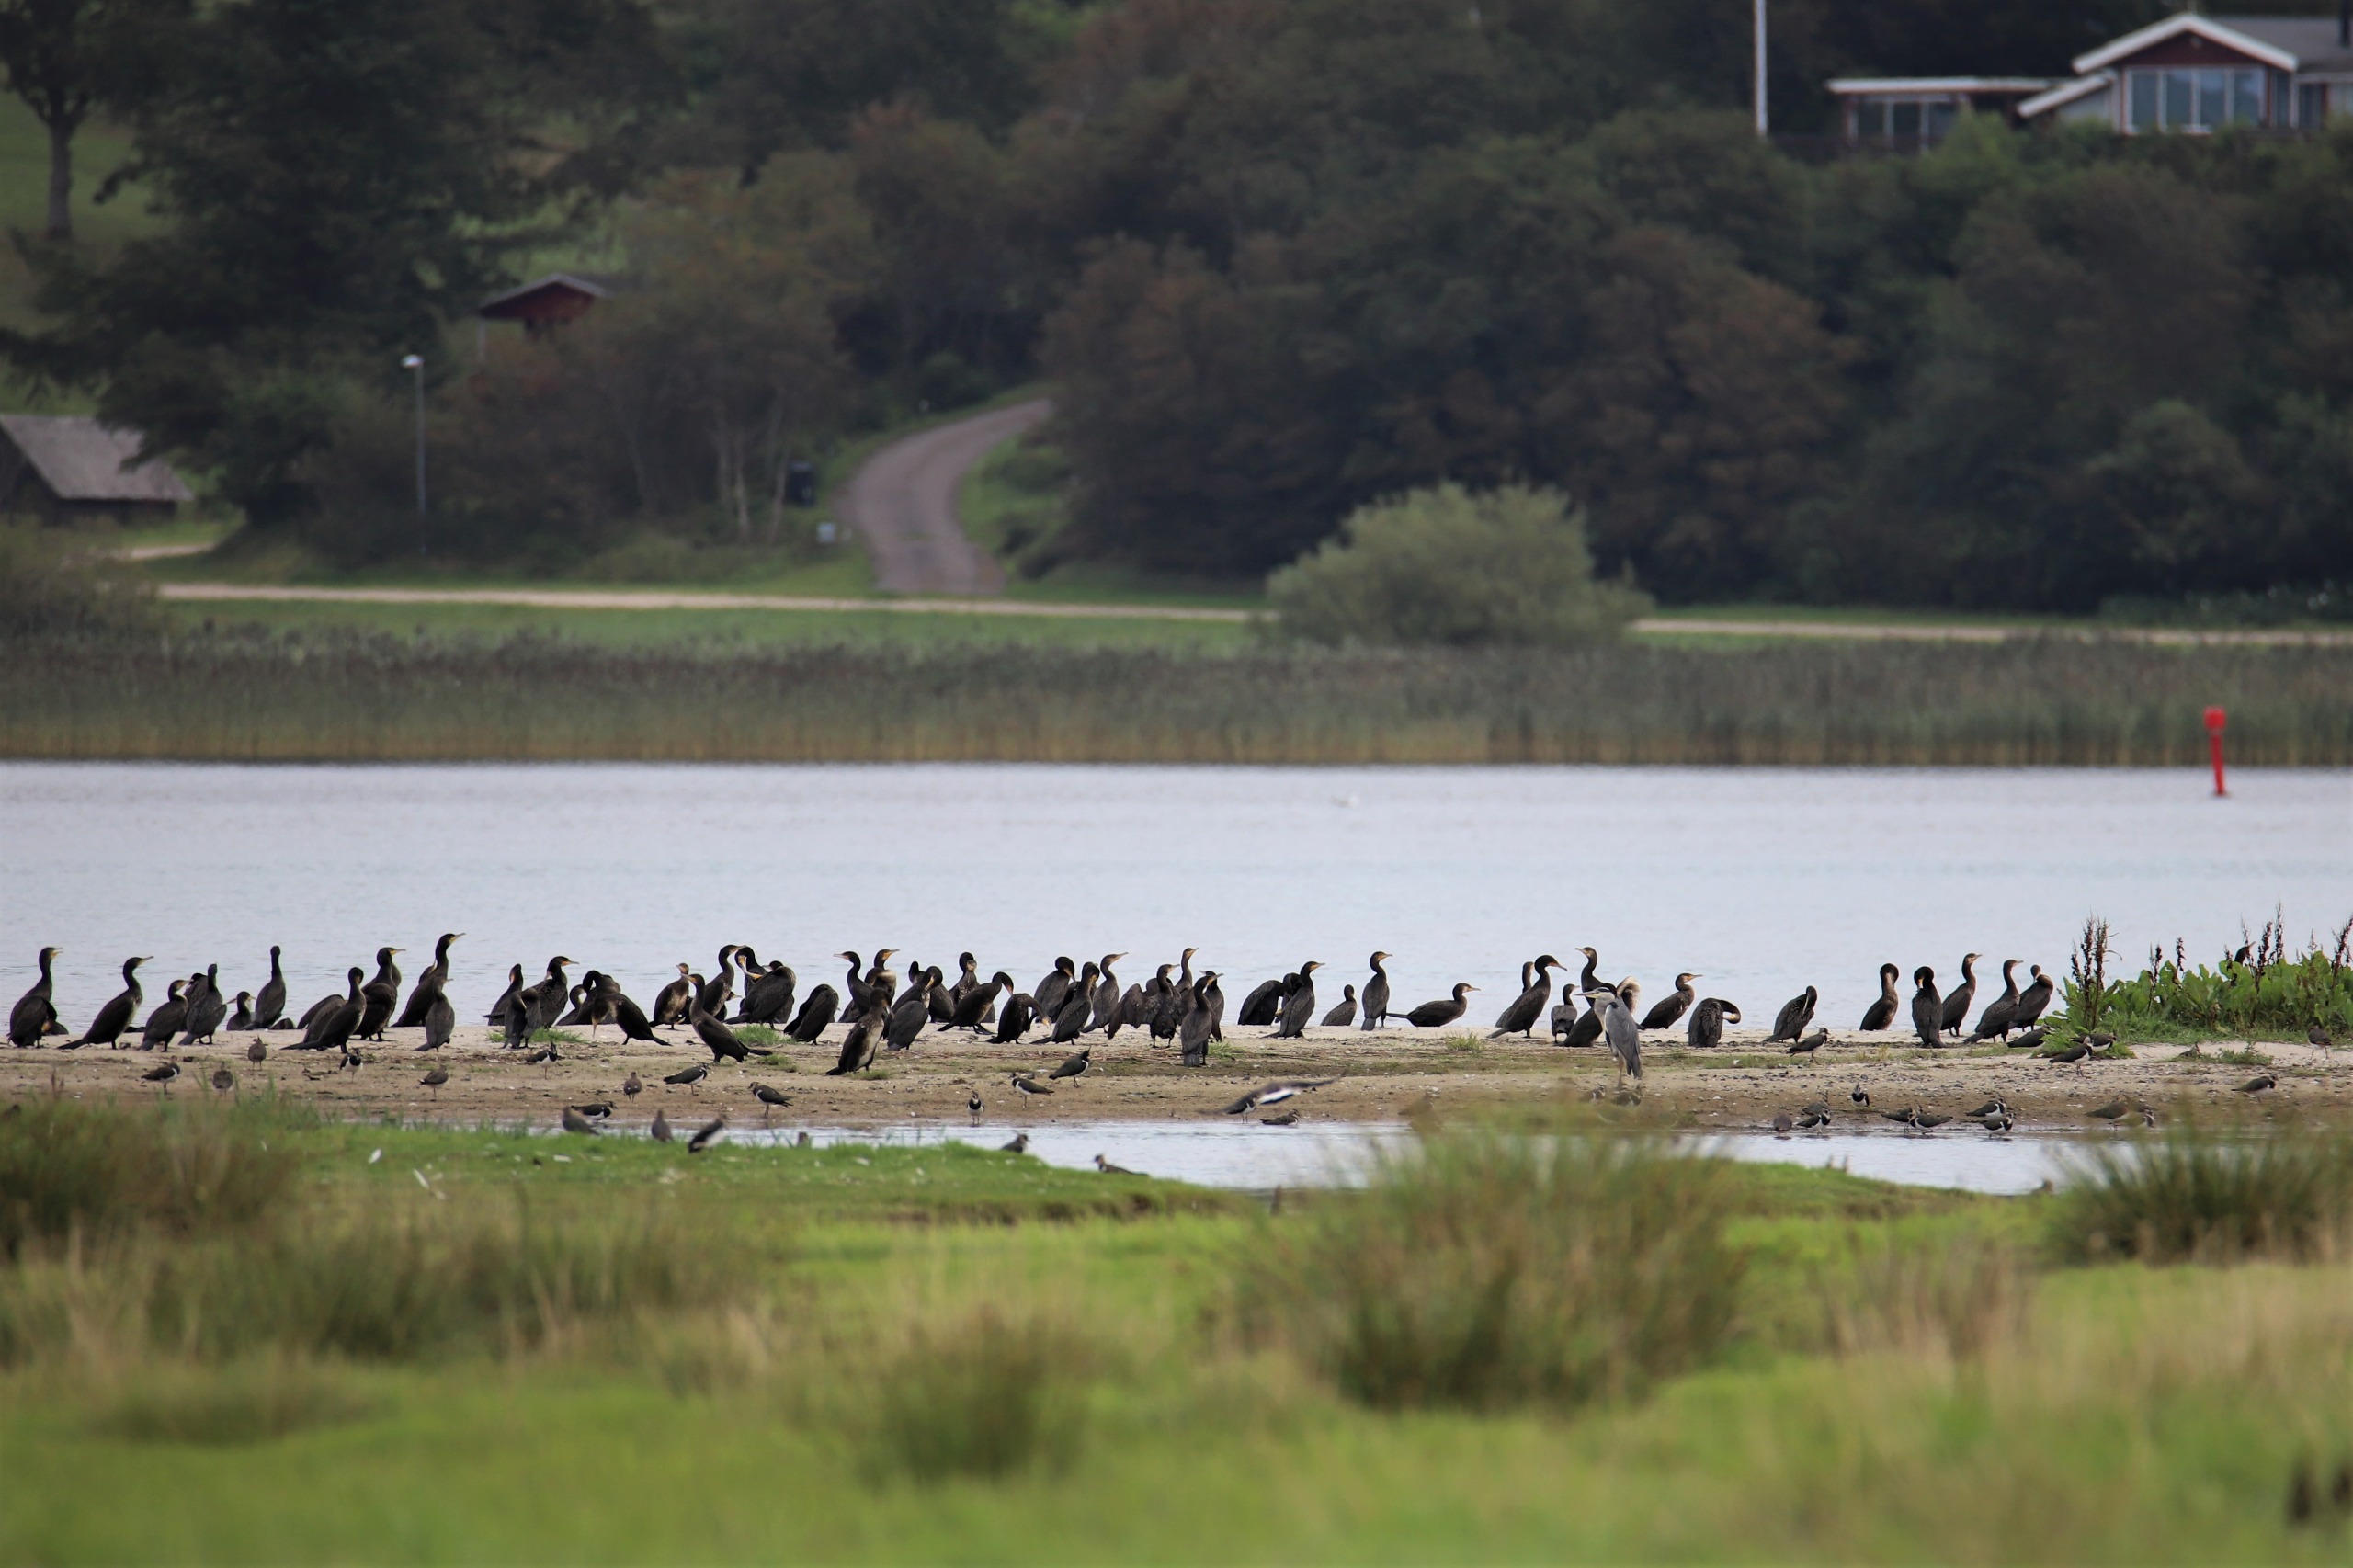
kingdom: Animalia
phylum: Chordata
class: Aves
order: Suliformes
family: Phalacrocoracidae
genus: Phalacrocorax
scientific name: Phalacrocorax carbo
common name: Skarv
